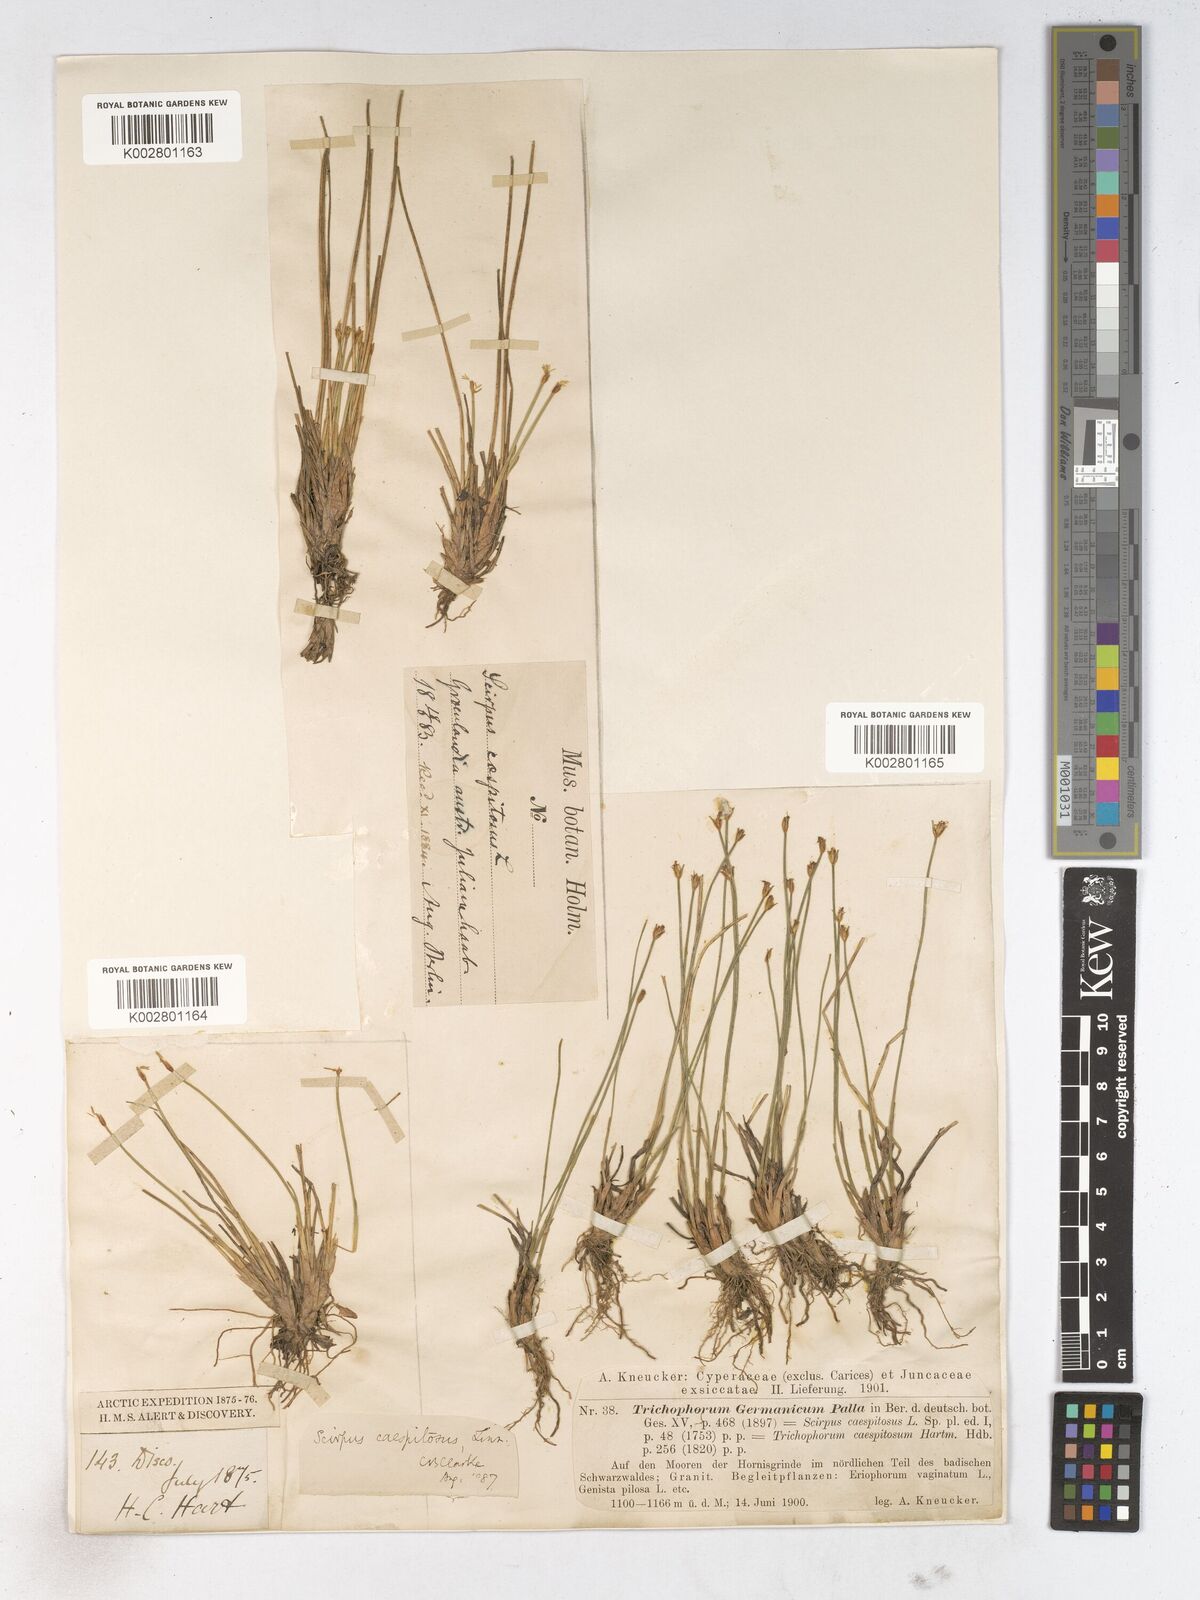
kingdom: Plantae
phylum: Tracheophyta
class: Liliopsida
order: Poales
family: Cyperaceae
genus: Trichophorum
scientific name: Trichophorum cespitosum
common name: Cespitose bulrush
